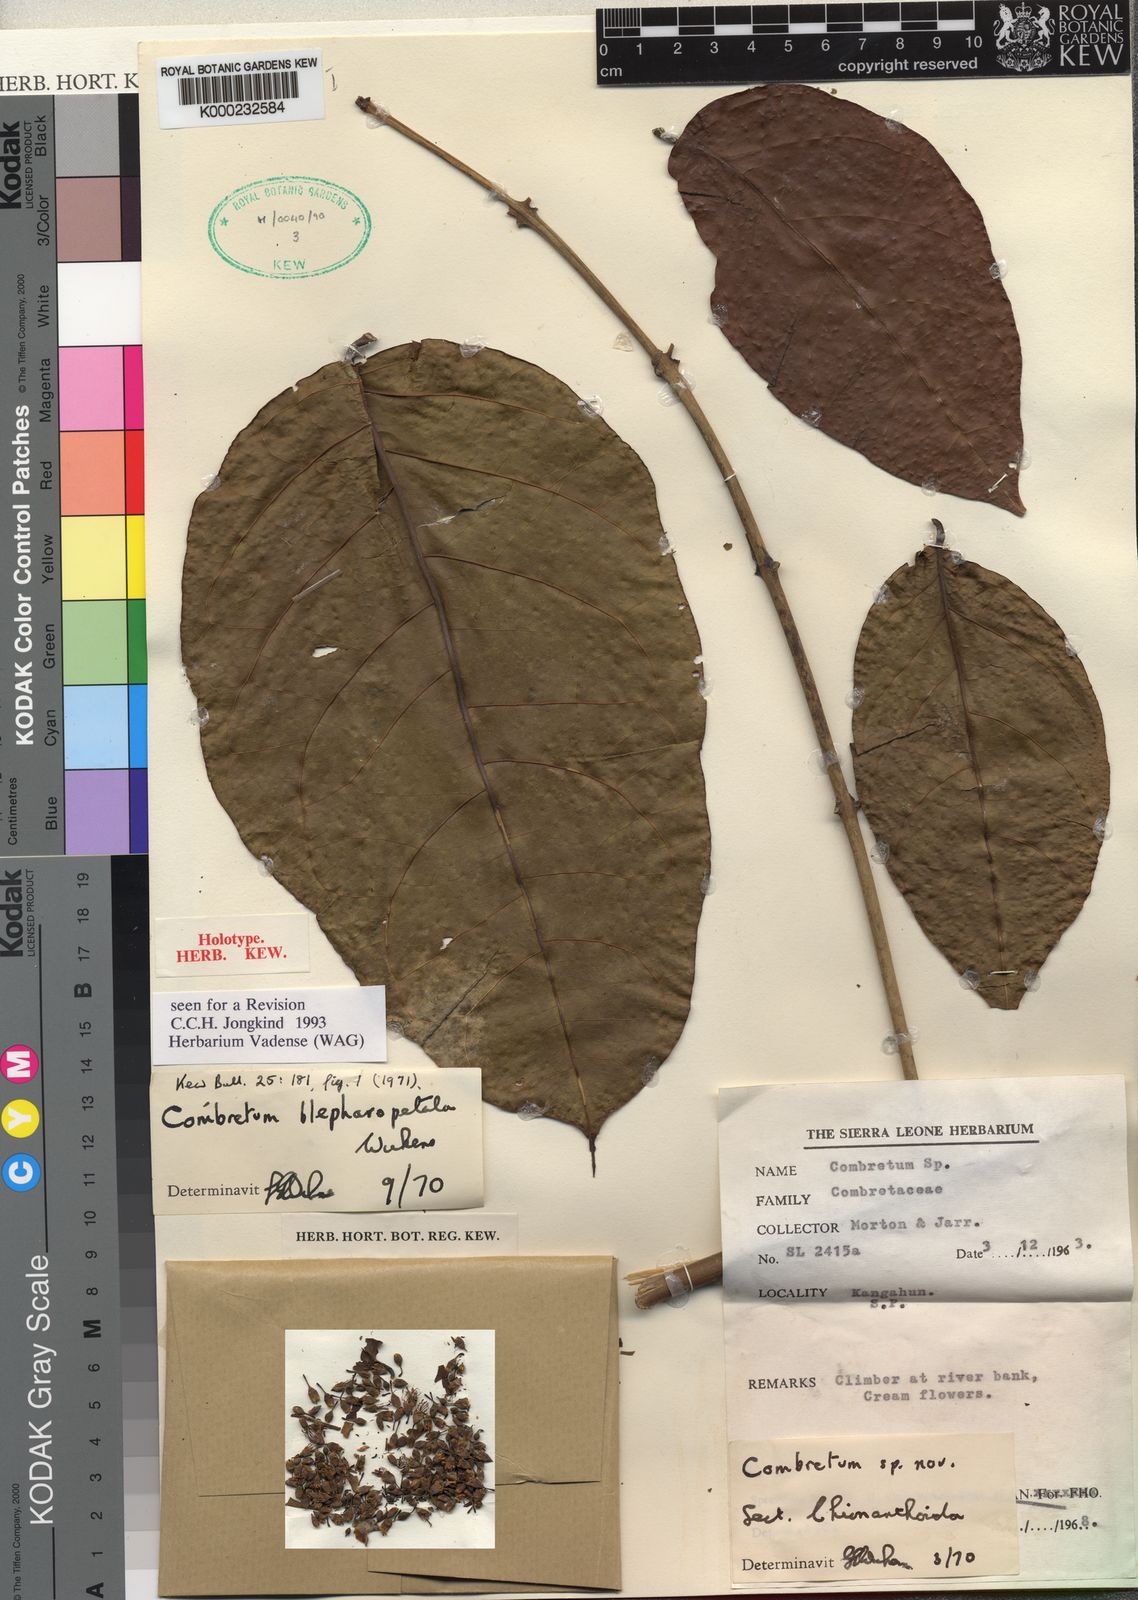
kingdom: Plantae
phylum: Tracheophyta
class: Magnoliopsida
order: Myrtales
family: Combretaceae
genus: Combretum
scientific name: Combretum blepharopetalum
